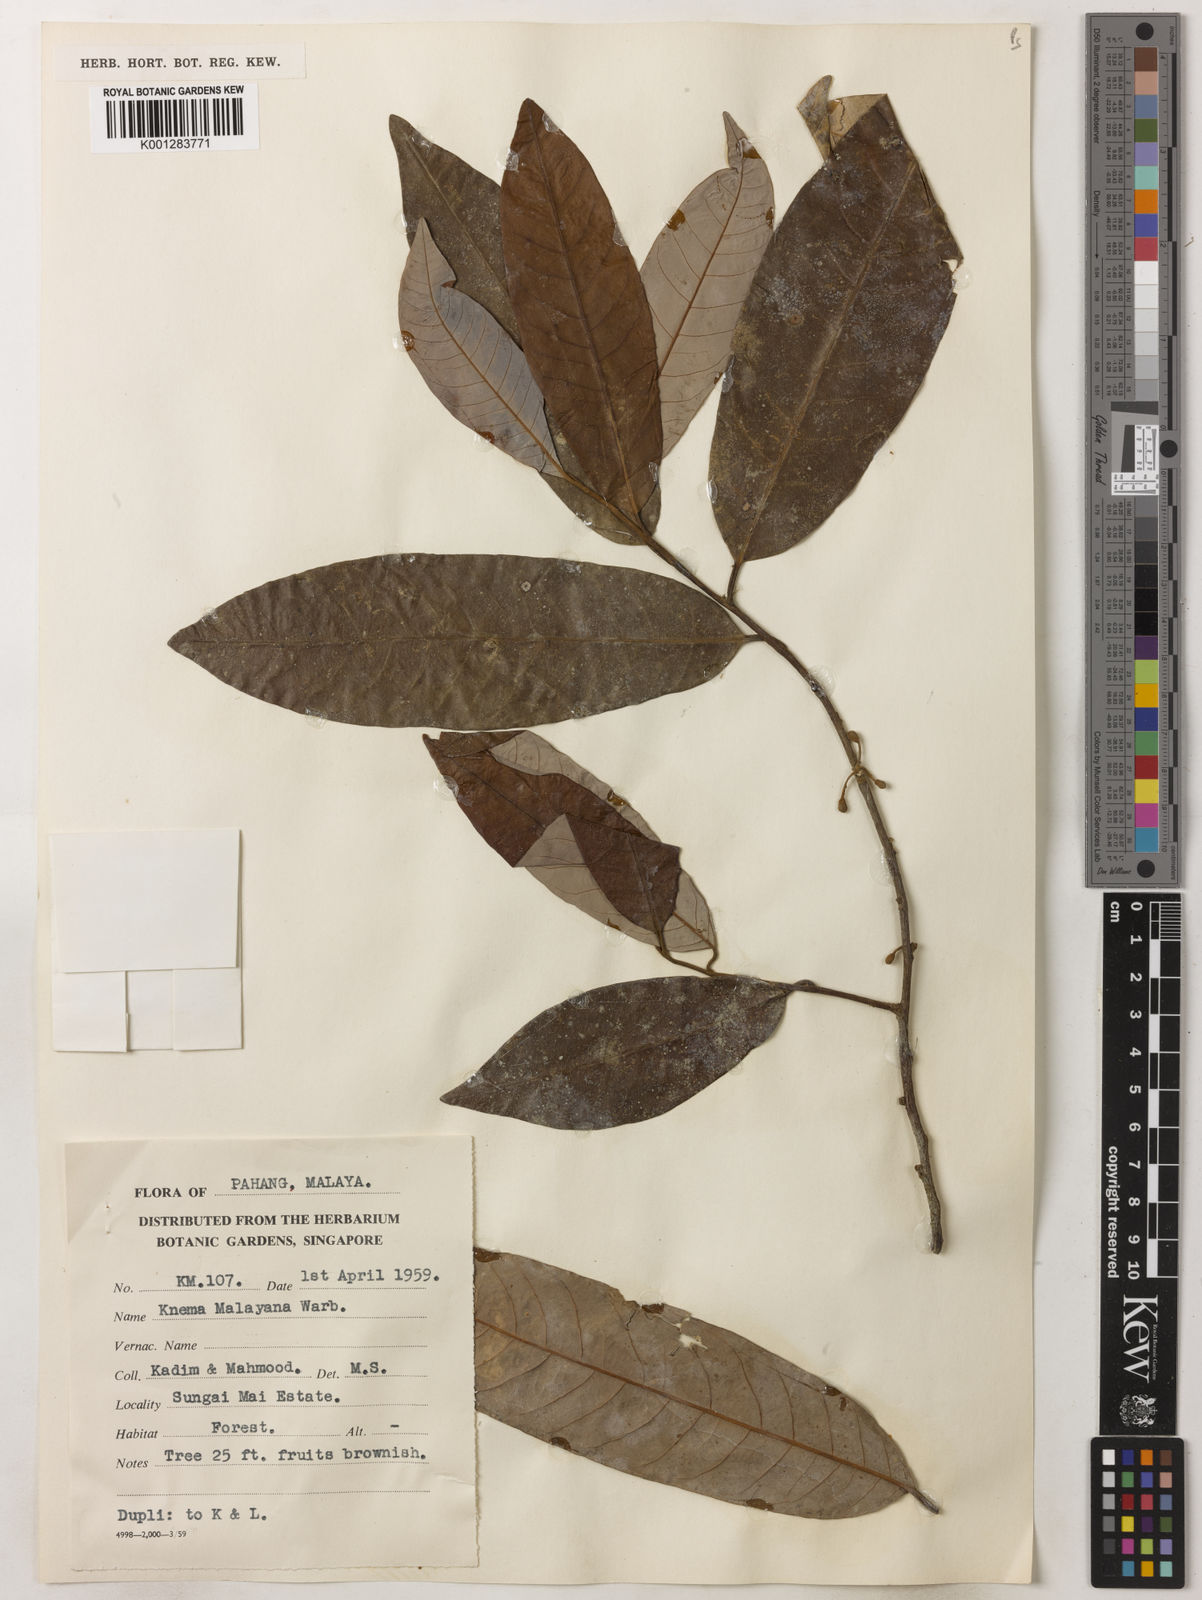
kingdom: Plantae
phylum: Tracheophyta
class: Magnoliopsida
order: Magnoliales
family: Myristicaceae
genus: Knema
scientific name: Knema malayana
